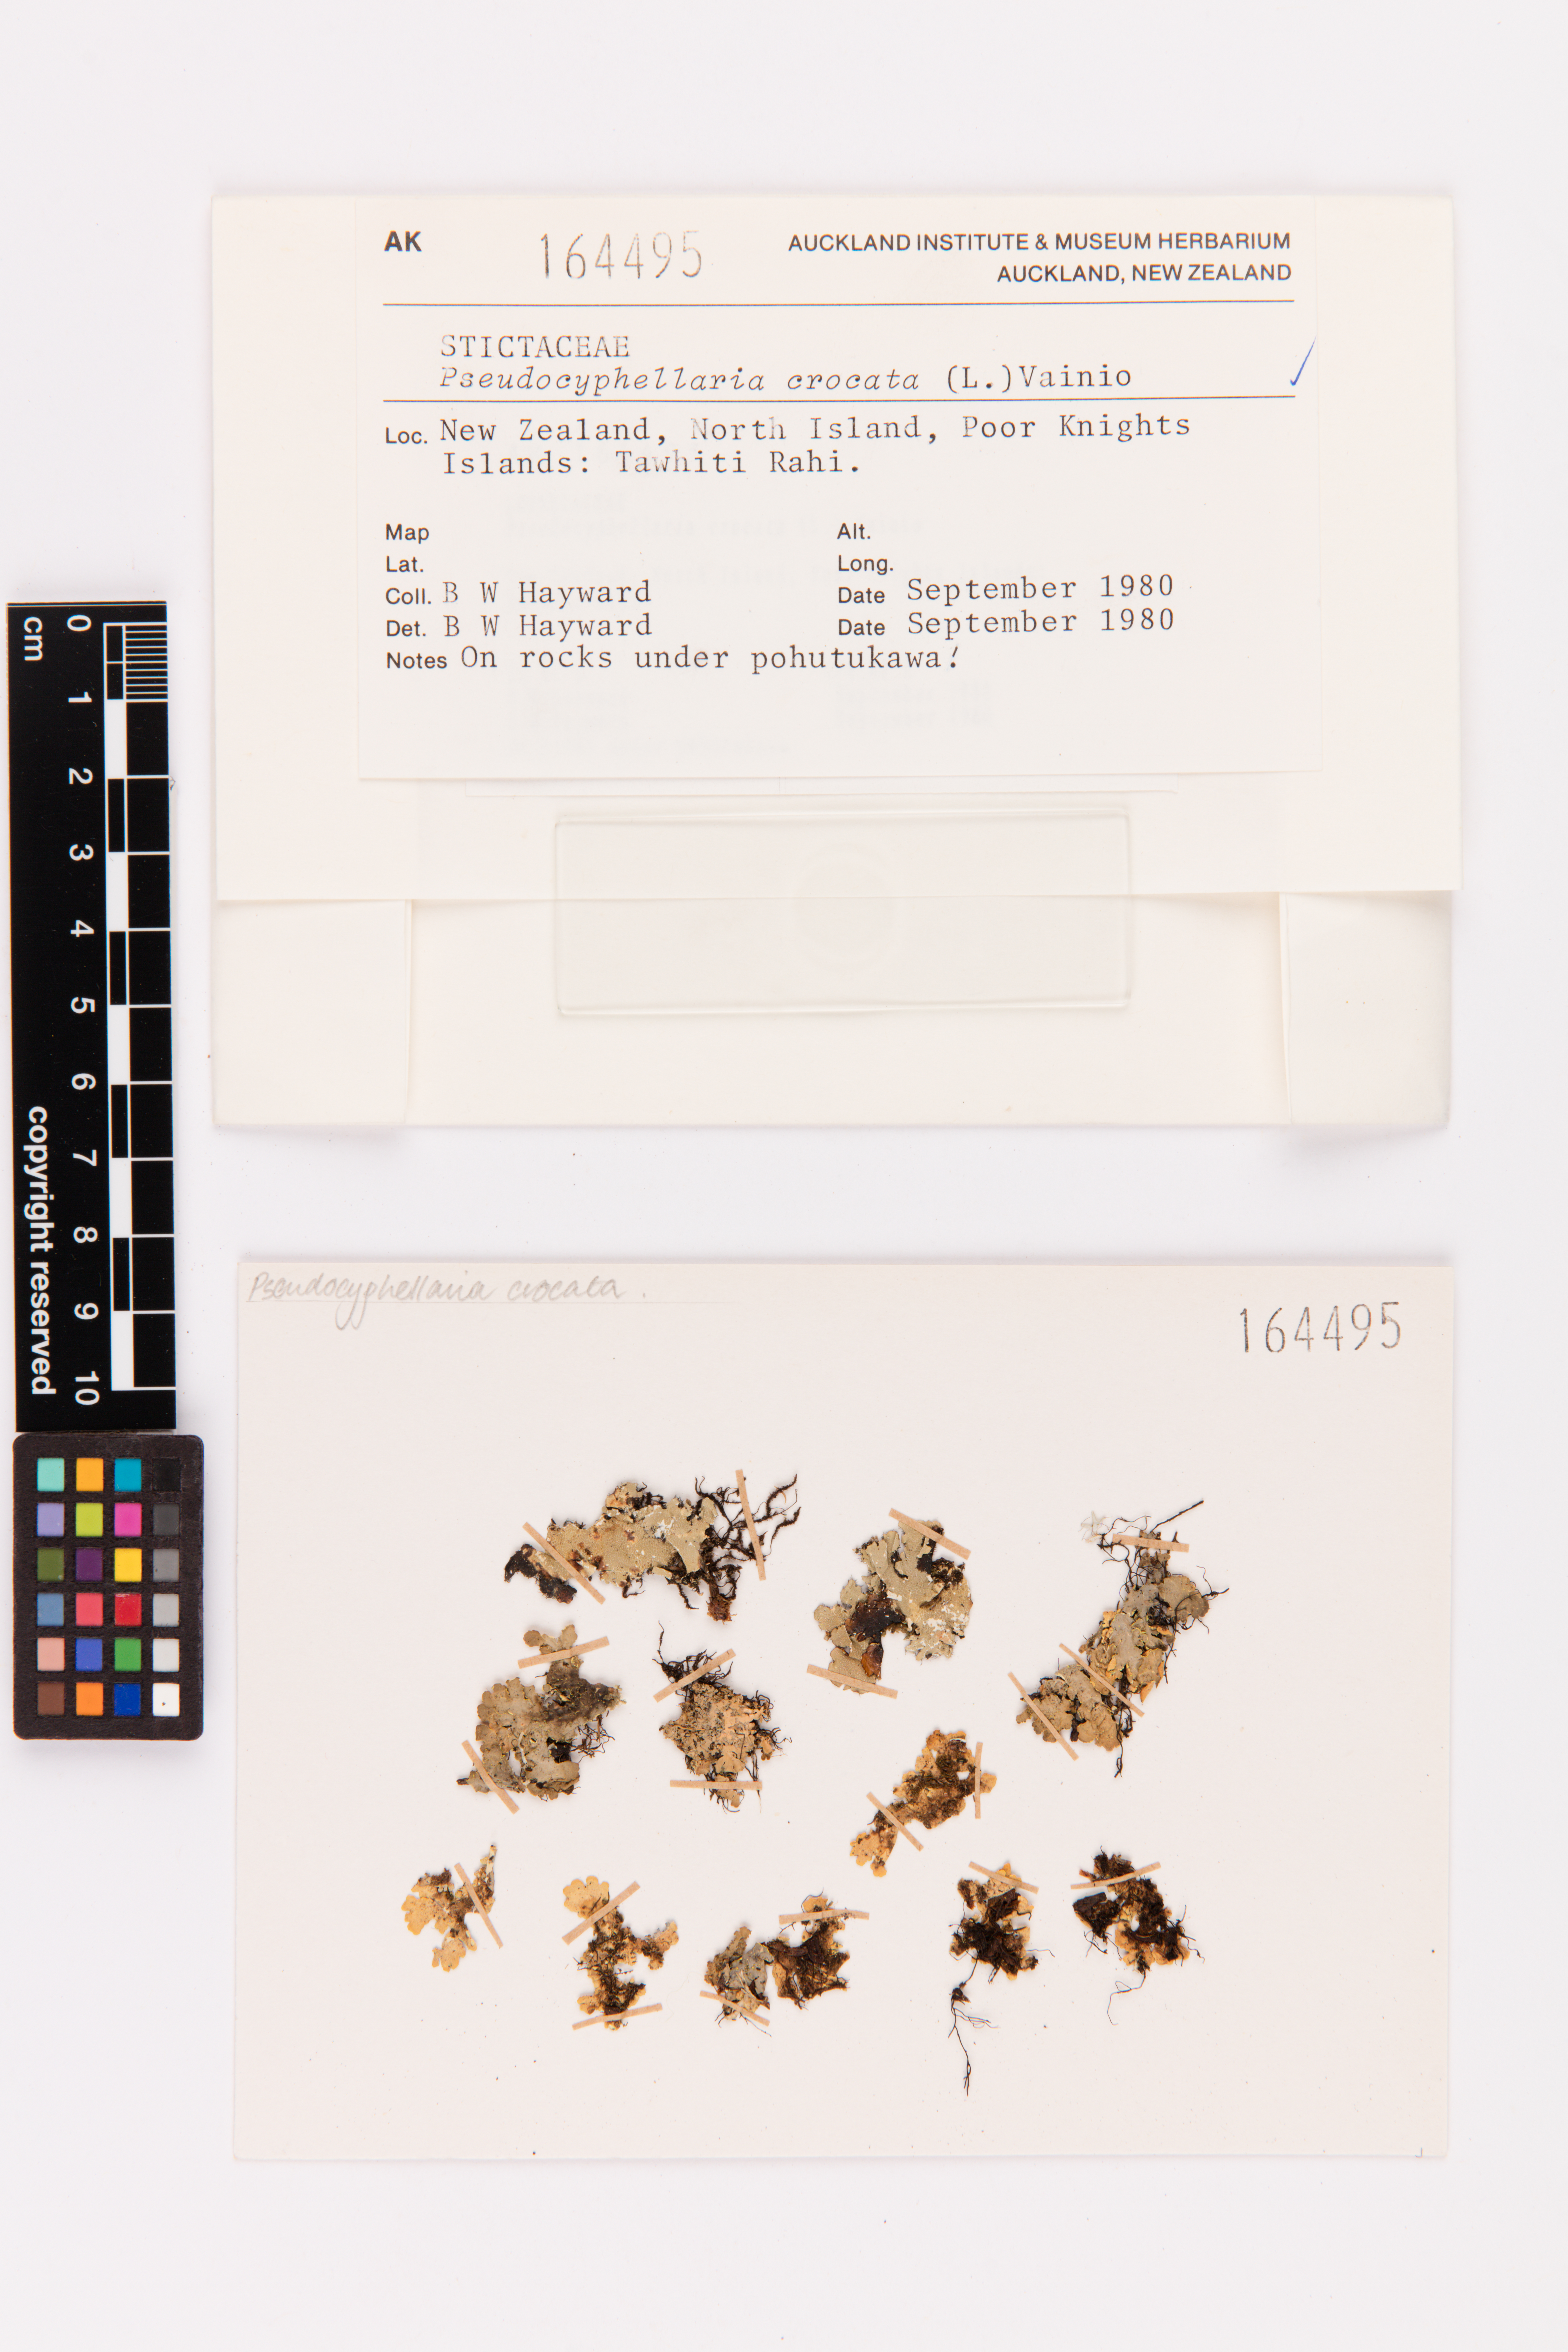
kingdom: Fungi
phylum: Ascomycota
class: Lecanoromycetes
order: Peltigerales
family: Lobariaceae
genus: Pseudocyphellaria
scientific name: Pseudocyphellaria crocata
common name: Golden specklebelly
